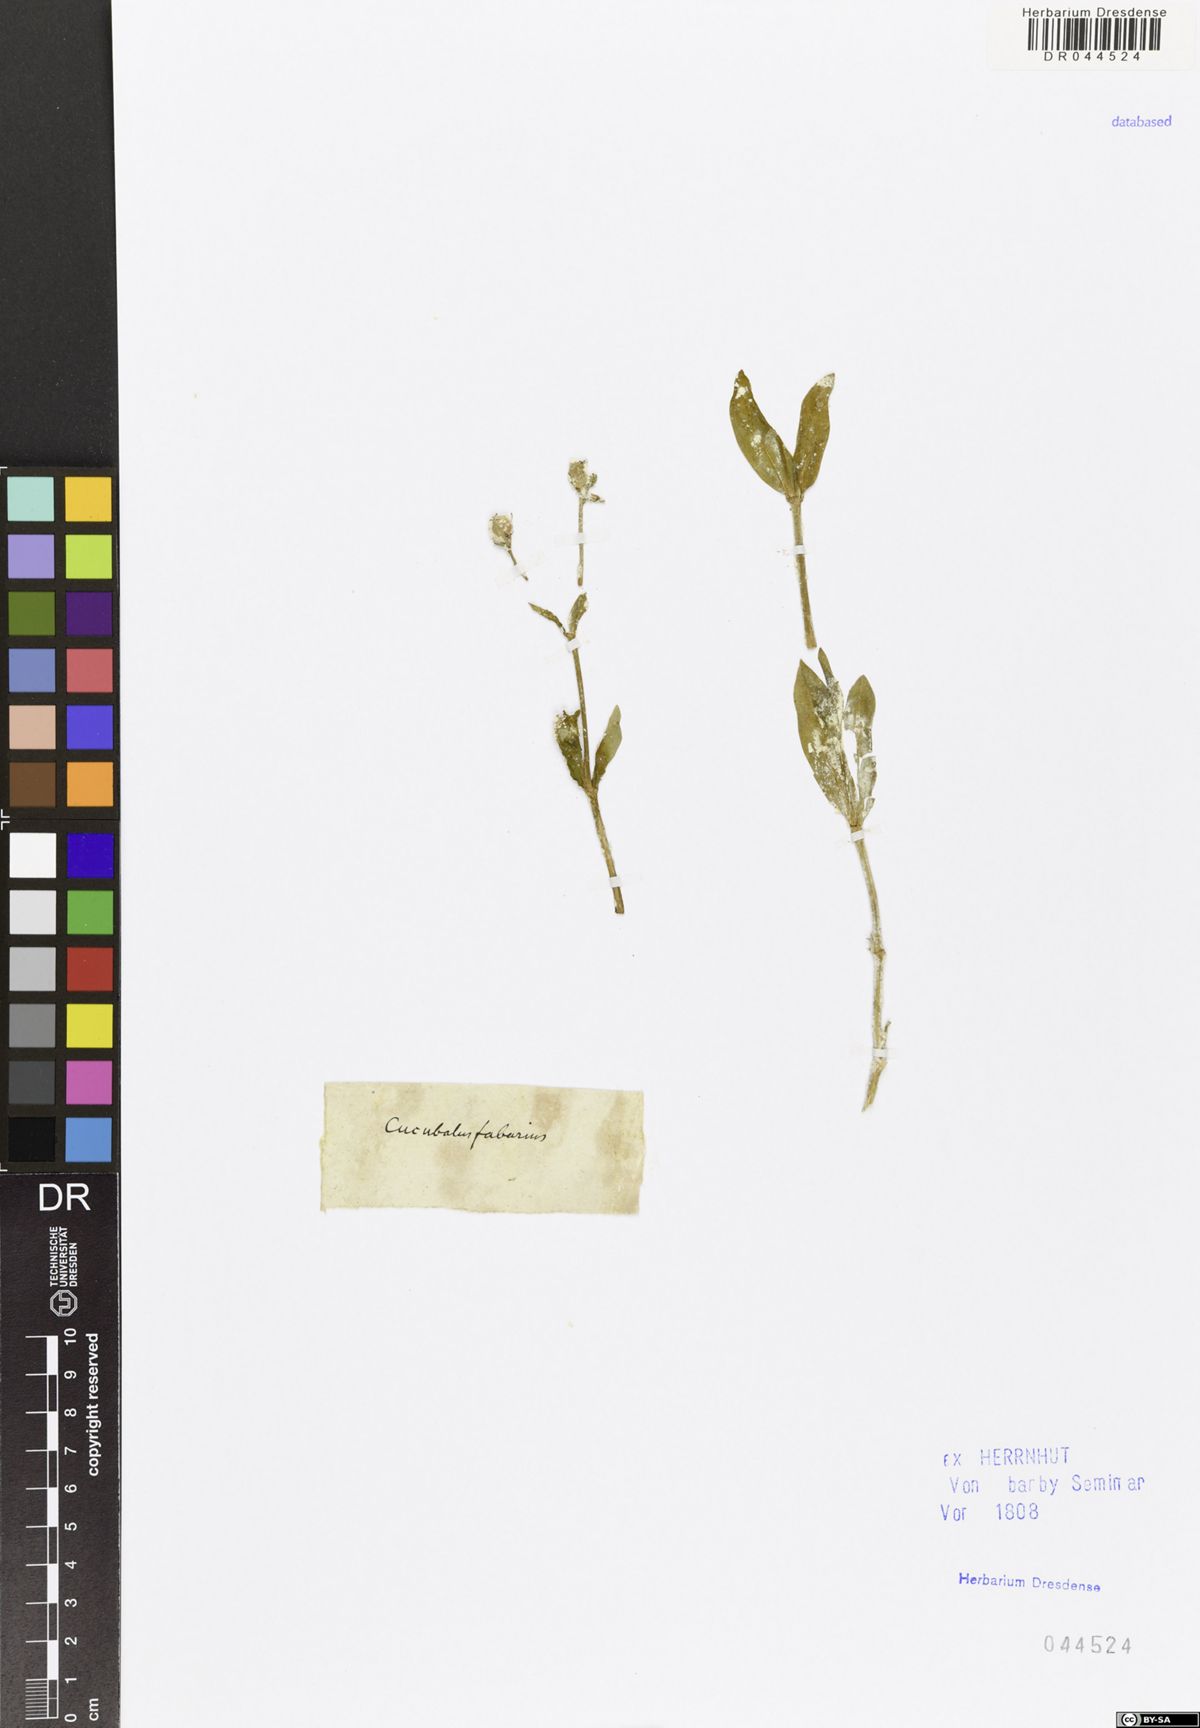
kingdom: Plantae
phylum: Tracheophyta
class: Magnoliopsida
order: Caryophyllales
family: Caryophyllaceae
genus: Silene
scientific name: Silene fabaria
